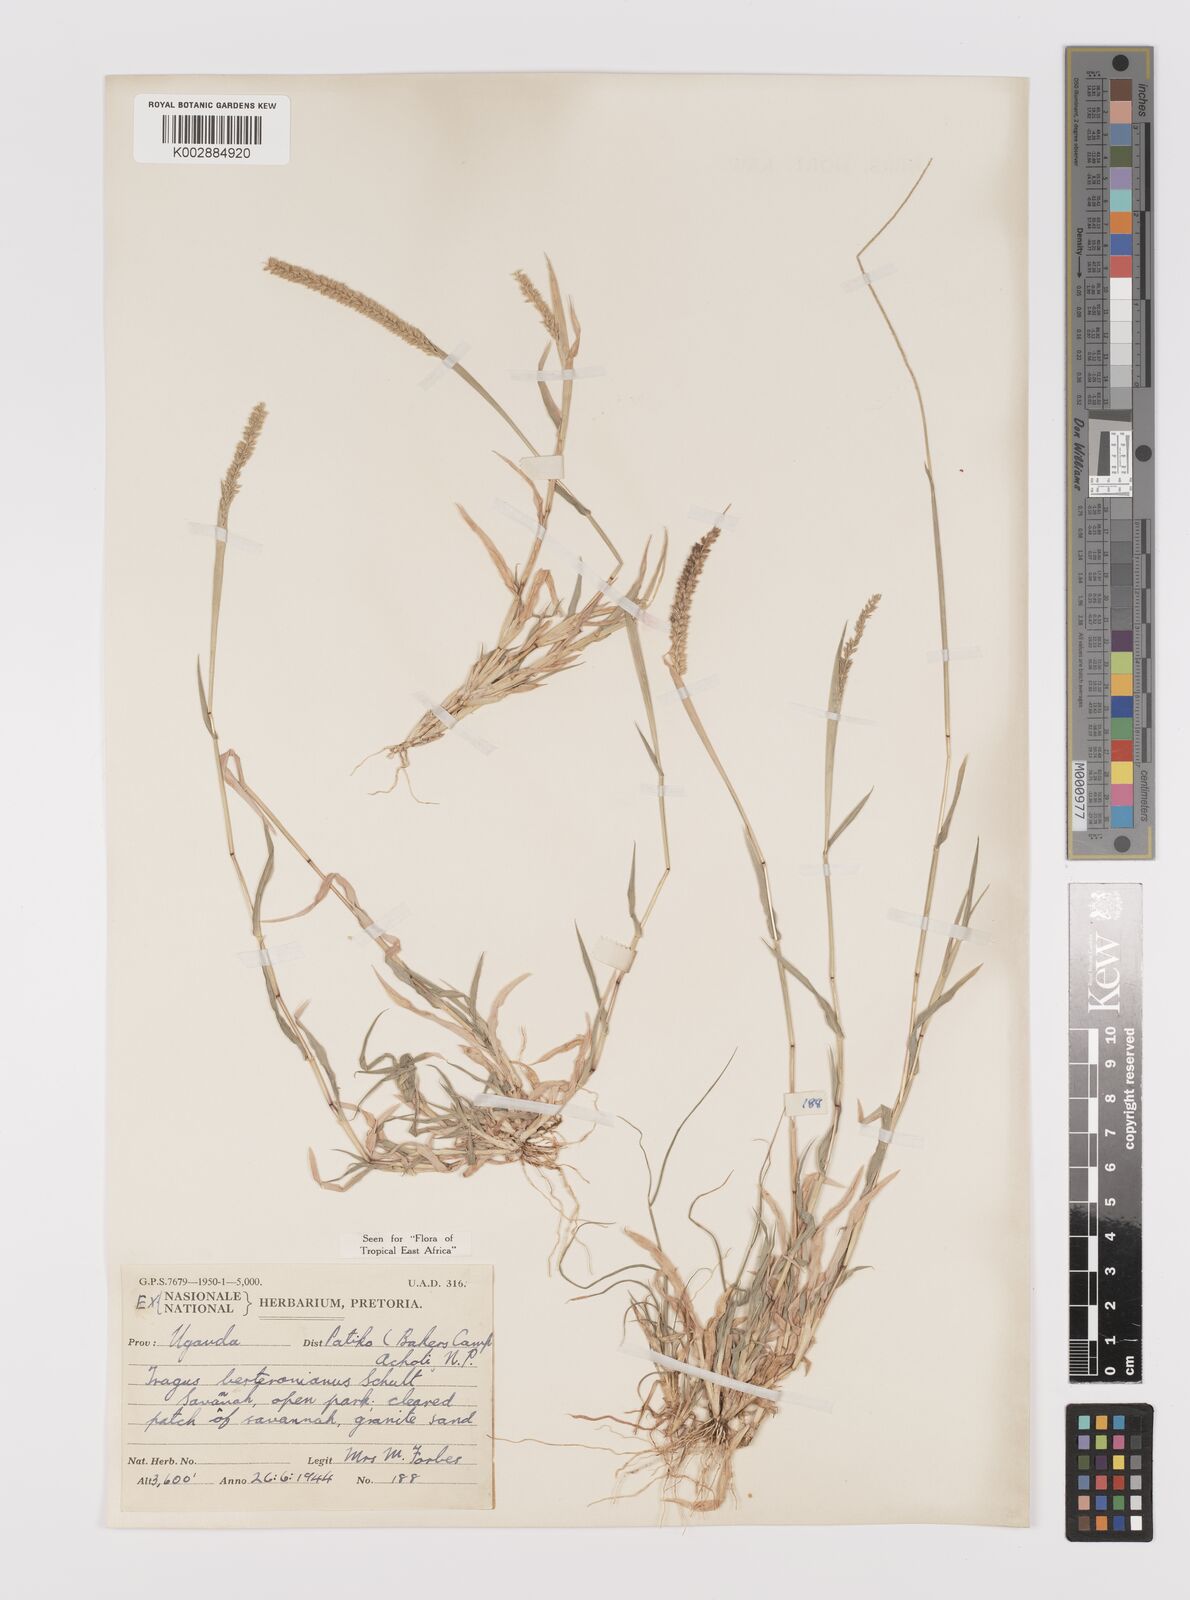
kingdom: Plantae
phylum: Tracheophyta
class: Liliopsida
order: Poales
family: Poaceae
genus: Tragus
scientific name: Tragus berteronianus
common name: African bur-grass
